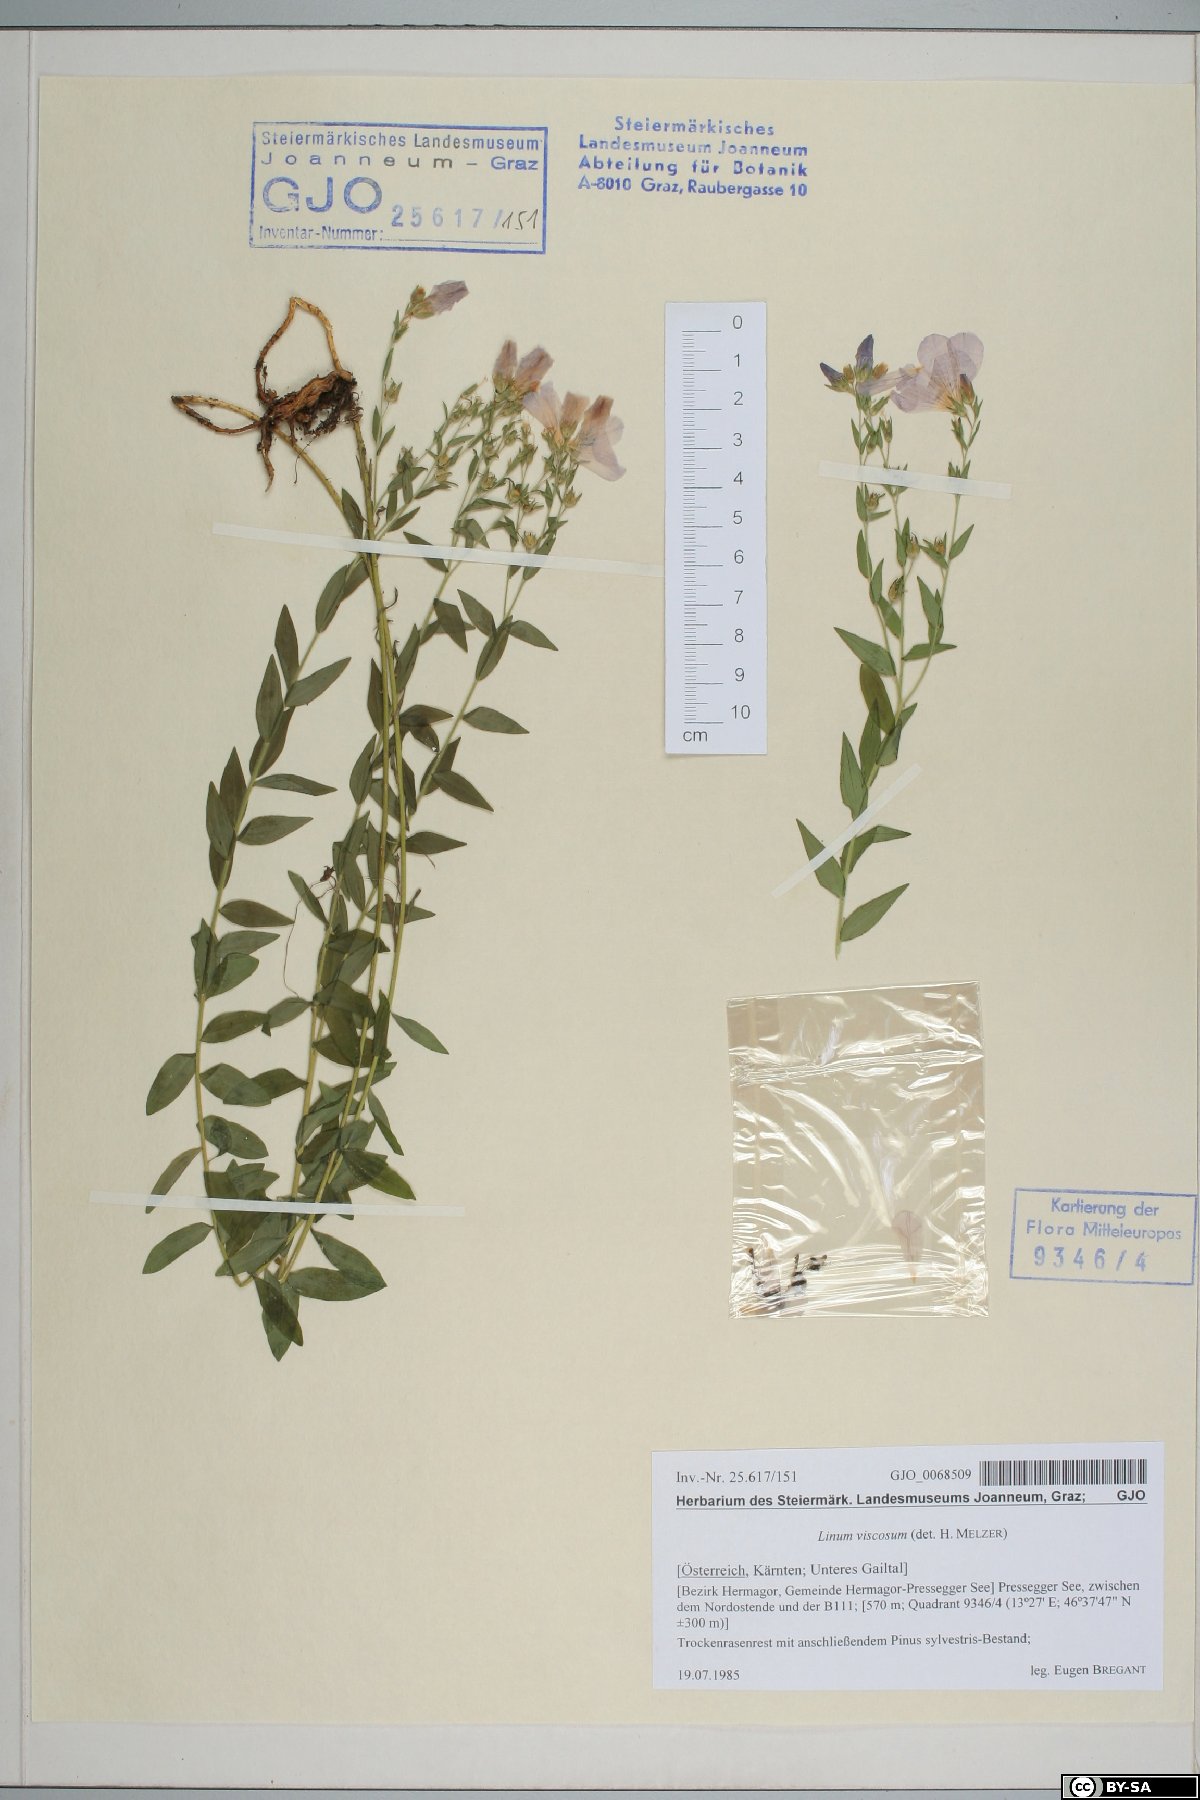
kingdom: Plantae
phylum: Tracheophyta
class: Magnoliopsida
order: Malpighiales
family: Linaceae
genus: Linum
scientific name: Linum viscosum
